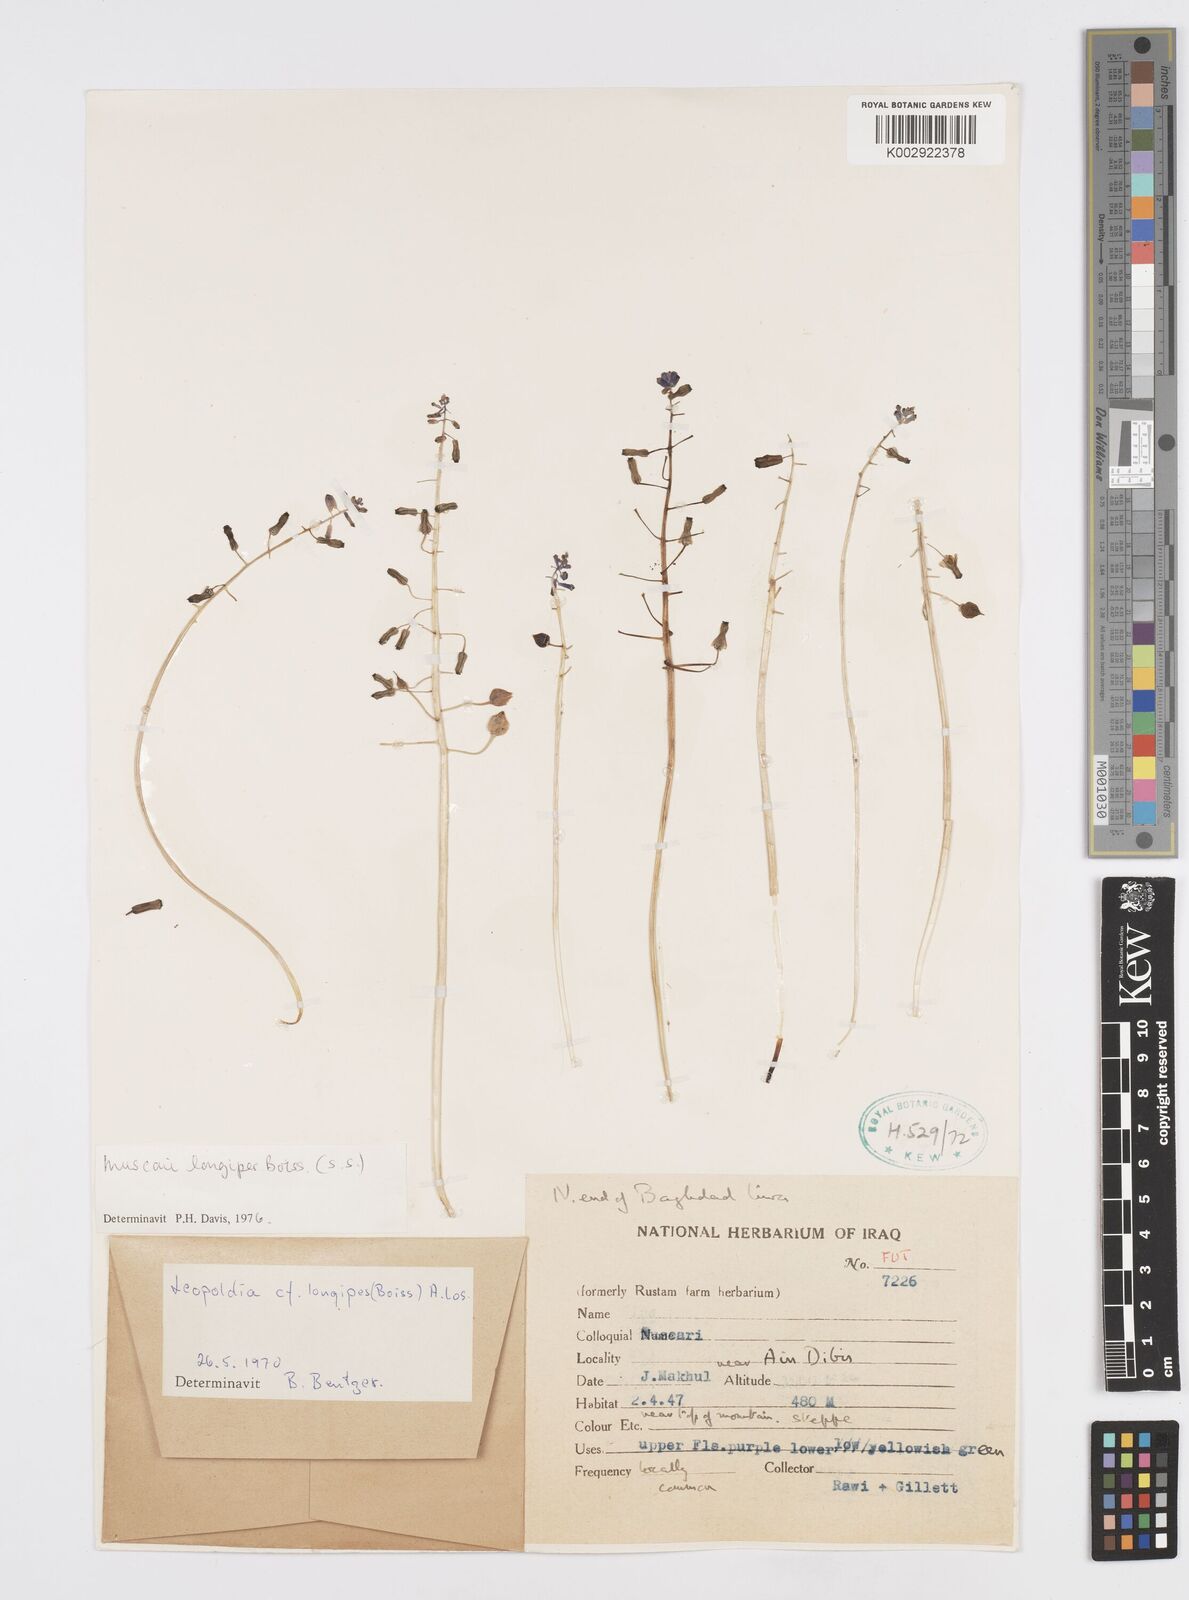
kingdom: Plantae
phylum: Tracheophyta
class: Liliopsida
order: Asparagales
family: Asparagaceae
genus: Muscari
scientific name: Muscari longipes
